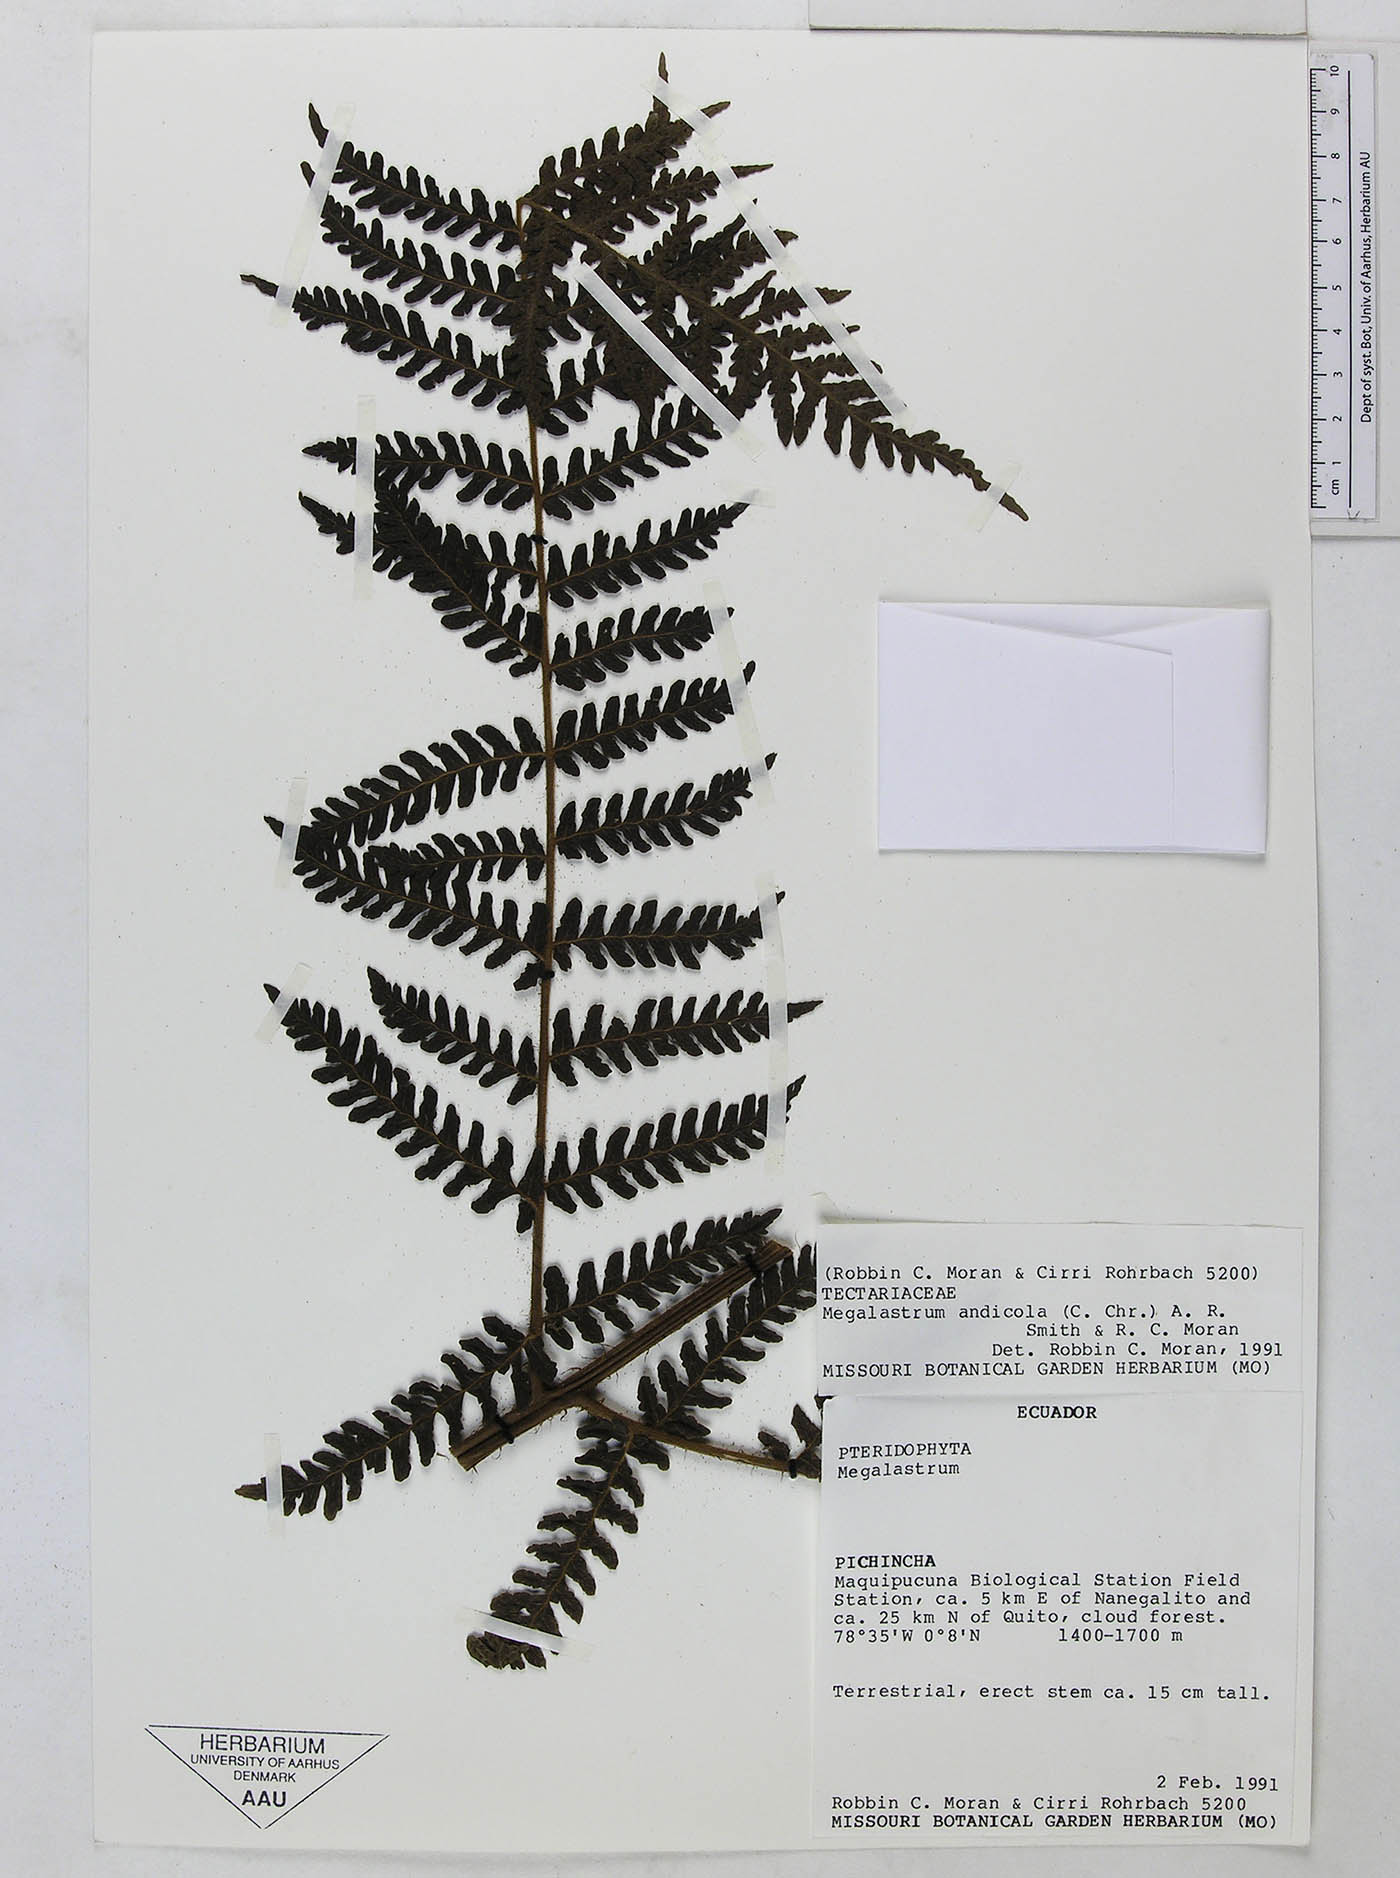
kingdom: Plantae
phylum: Tracheophyta
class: Polypodiopsida
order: Polypodiales
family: Dryopteridaceae
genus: Megalastrum
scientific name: Megalastrum insigne
